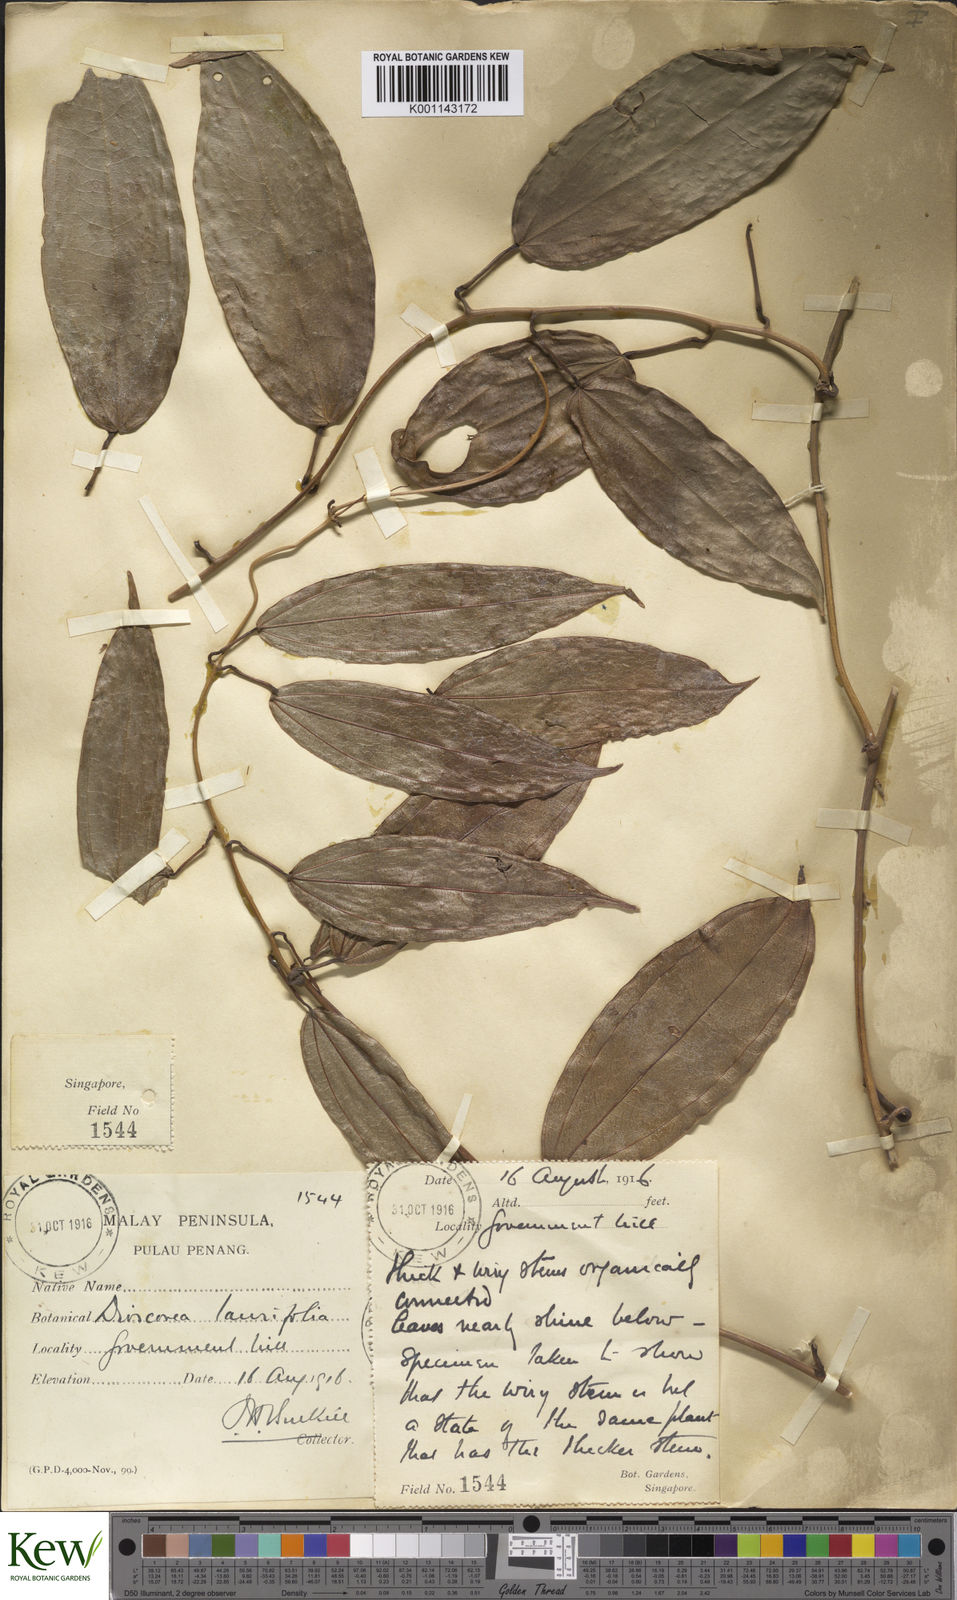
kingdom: Plantae
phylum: Tracheophyta
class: Liliopsida
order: Dioscoreales
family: Dioscoreaceae
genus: Dioscorea
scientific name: Dioscorea laurifolia
